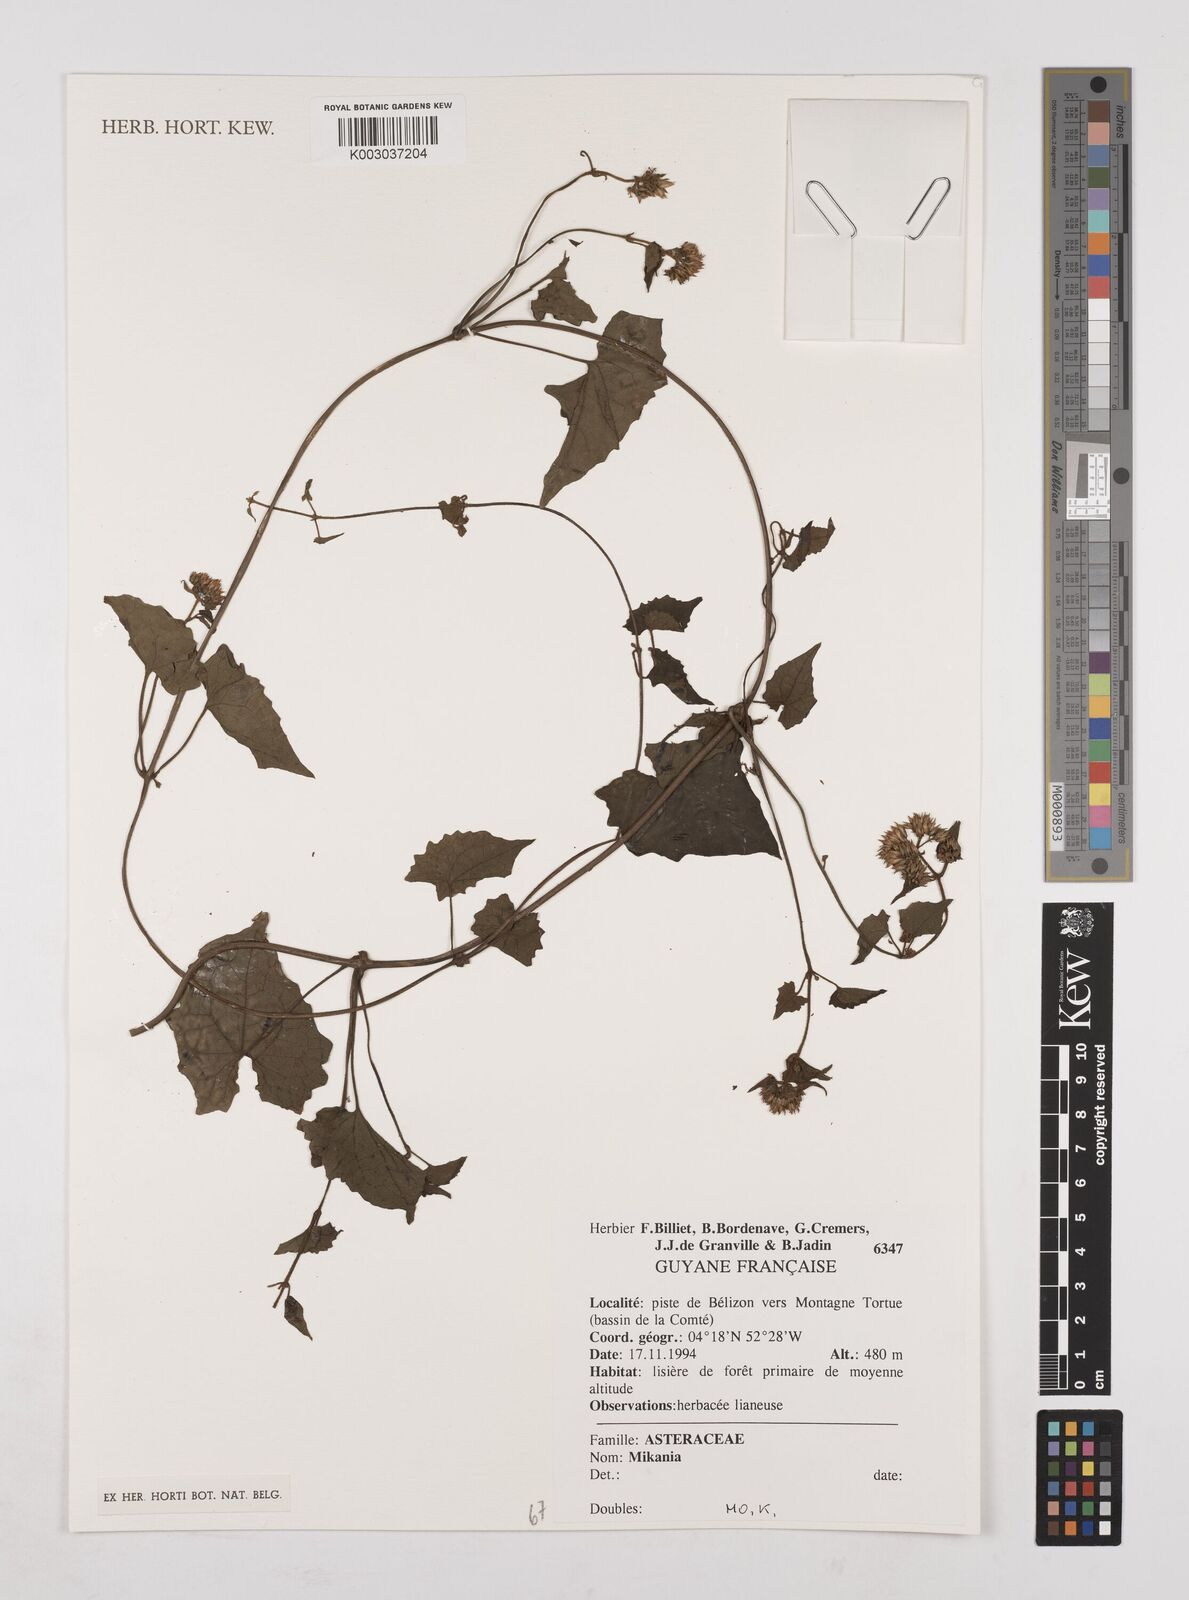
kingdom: Plantae
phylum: Tracheophyta
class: Magnoliopsida
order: Asterales
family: Asteraceae
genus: Mikania
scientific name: Mikania
